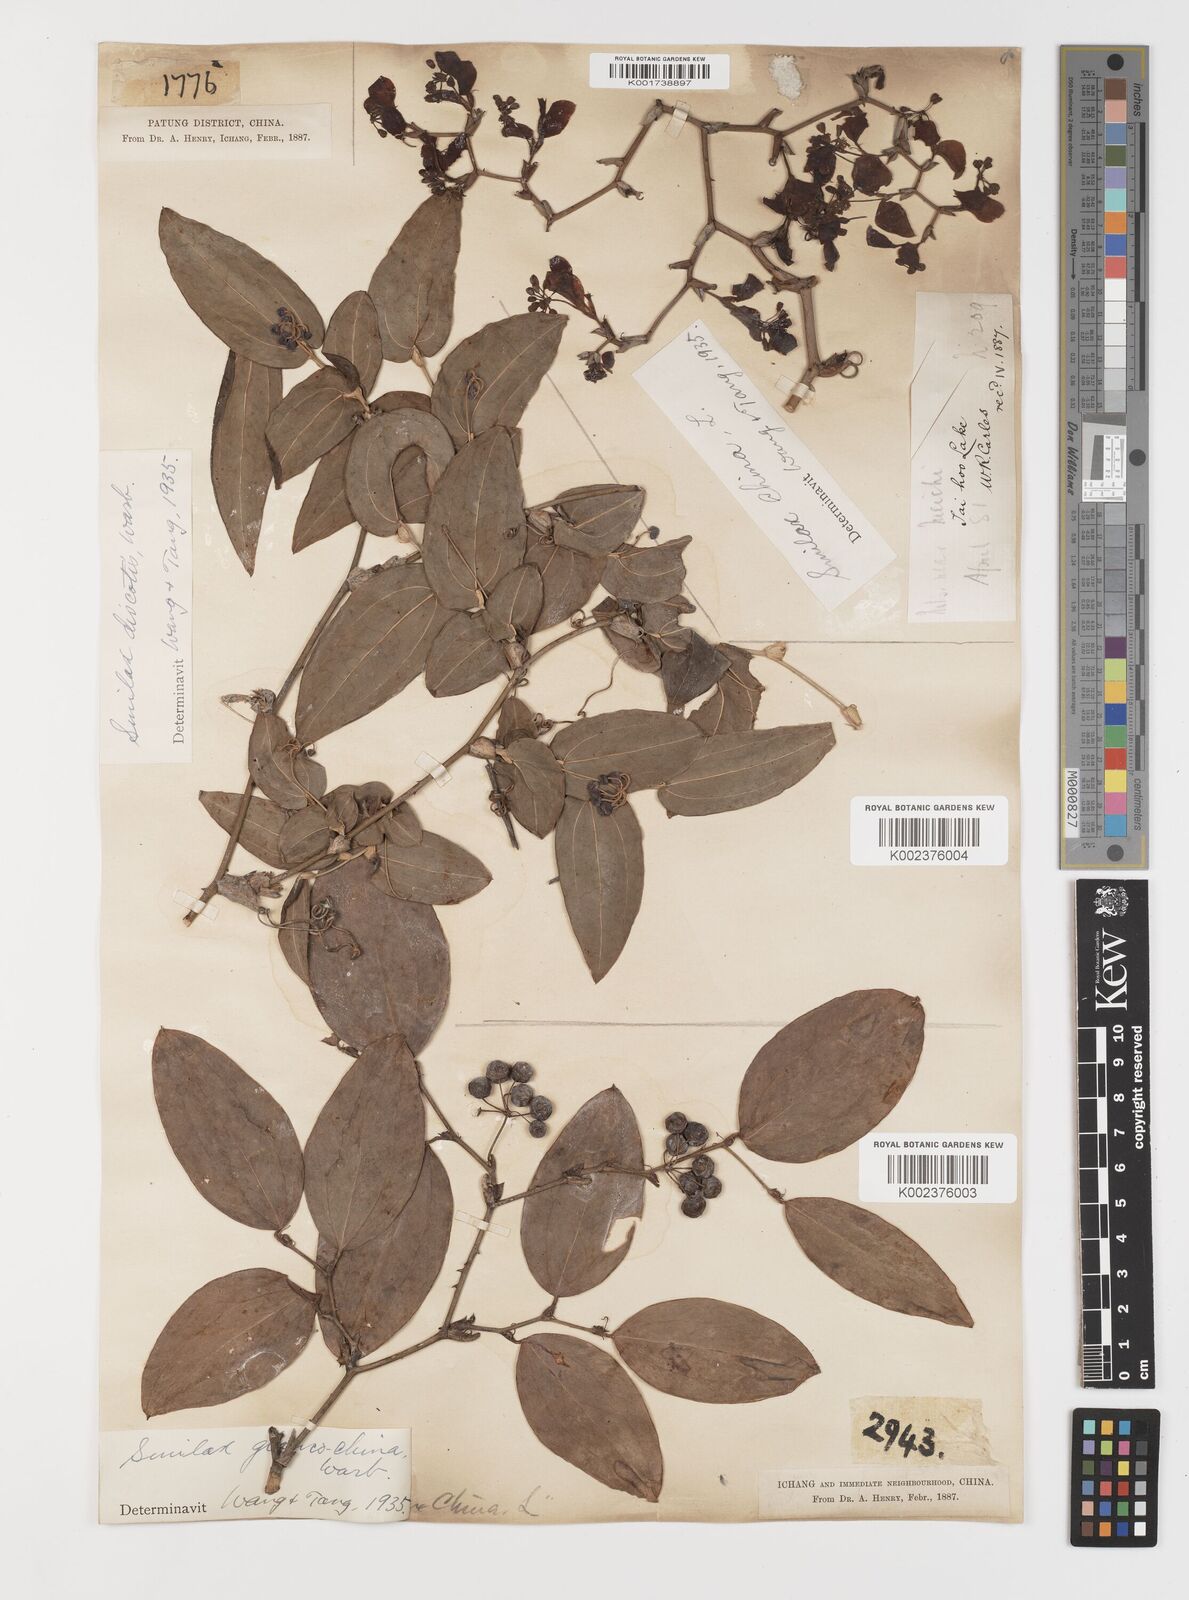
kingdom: Plantae
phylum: Tracheophyta
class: Liliopsida
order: Liliales
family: Smilacaceae
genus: Smilax
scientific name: Smilax discotis
